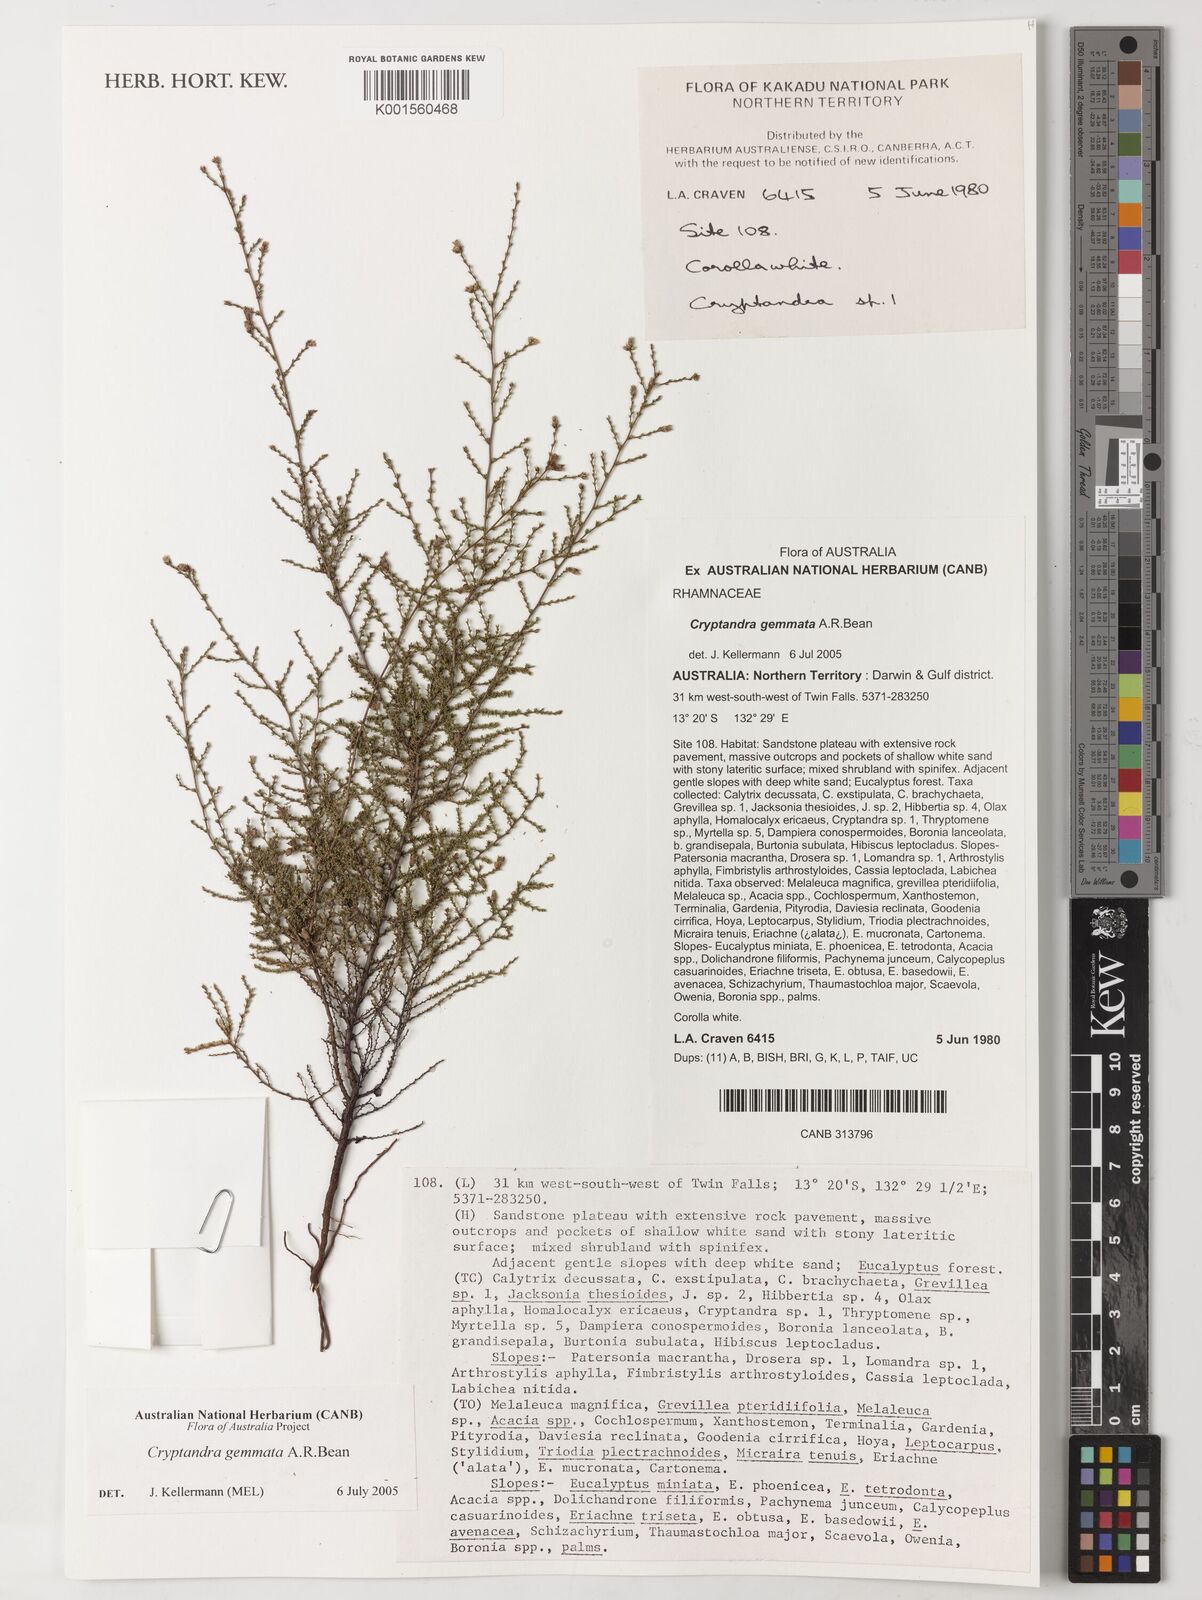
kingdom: Plantae
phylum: Tracheophyta
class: Magnoliopsida
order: Rosales
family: Rhamnaceae
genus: Cryptandra
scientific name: Cryptandra gemmata
